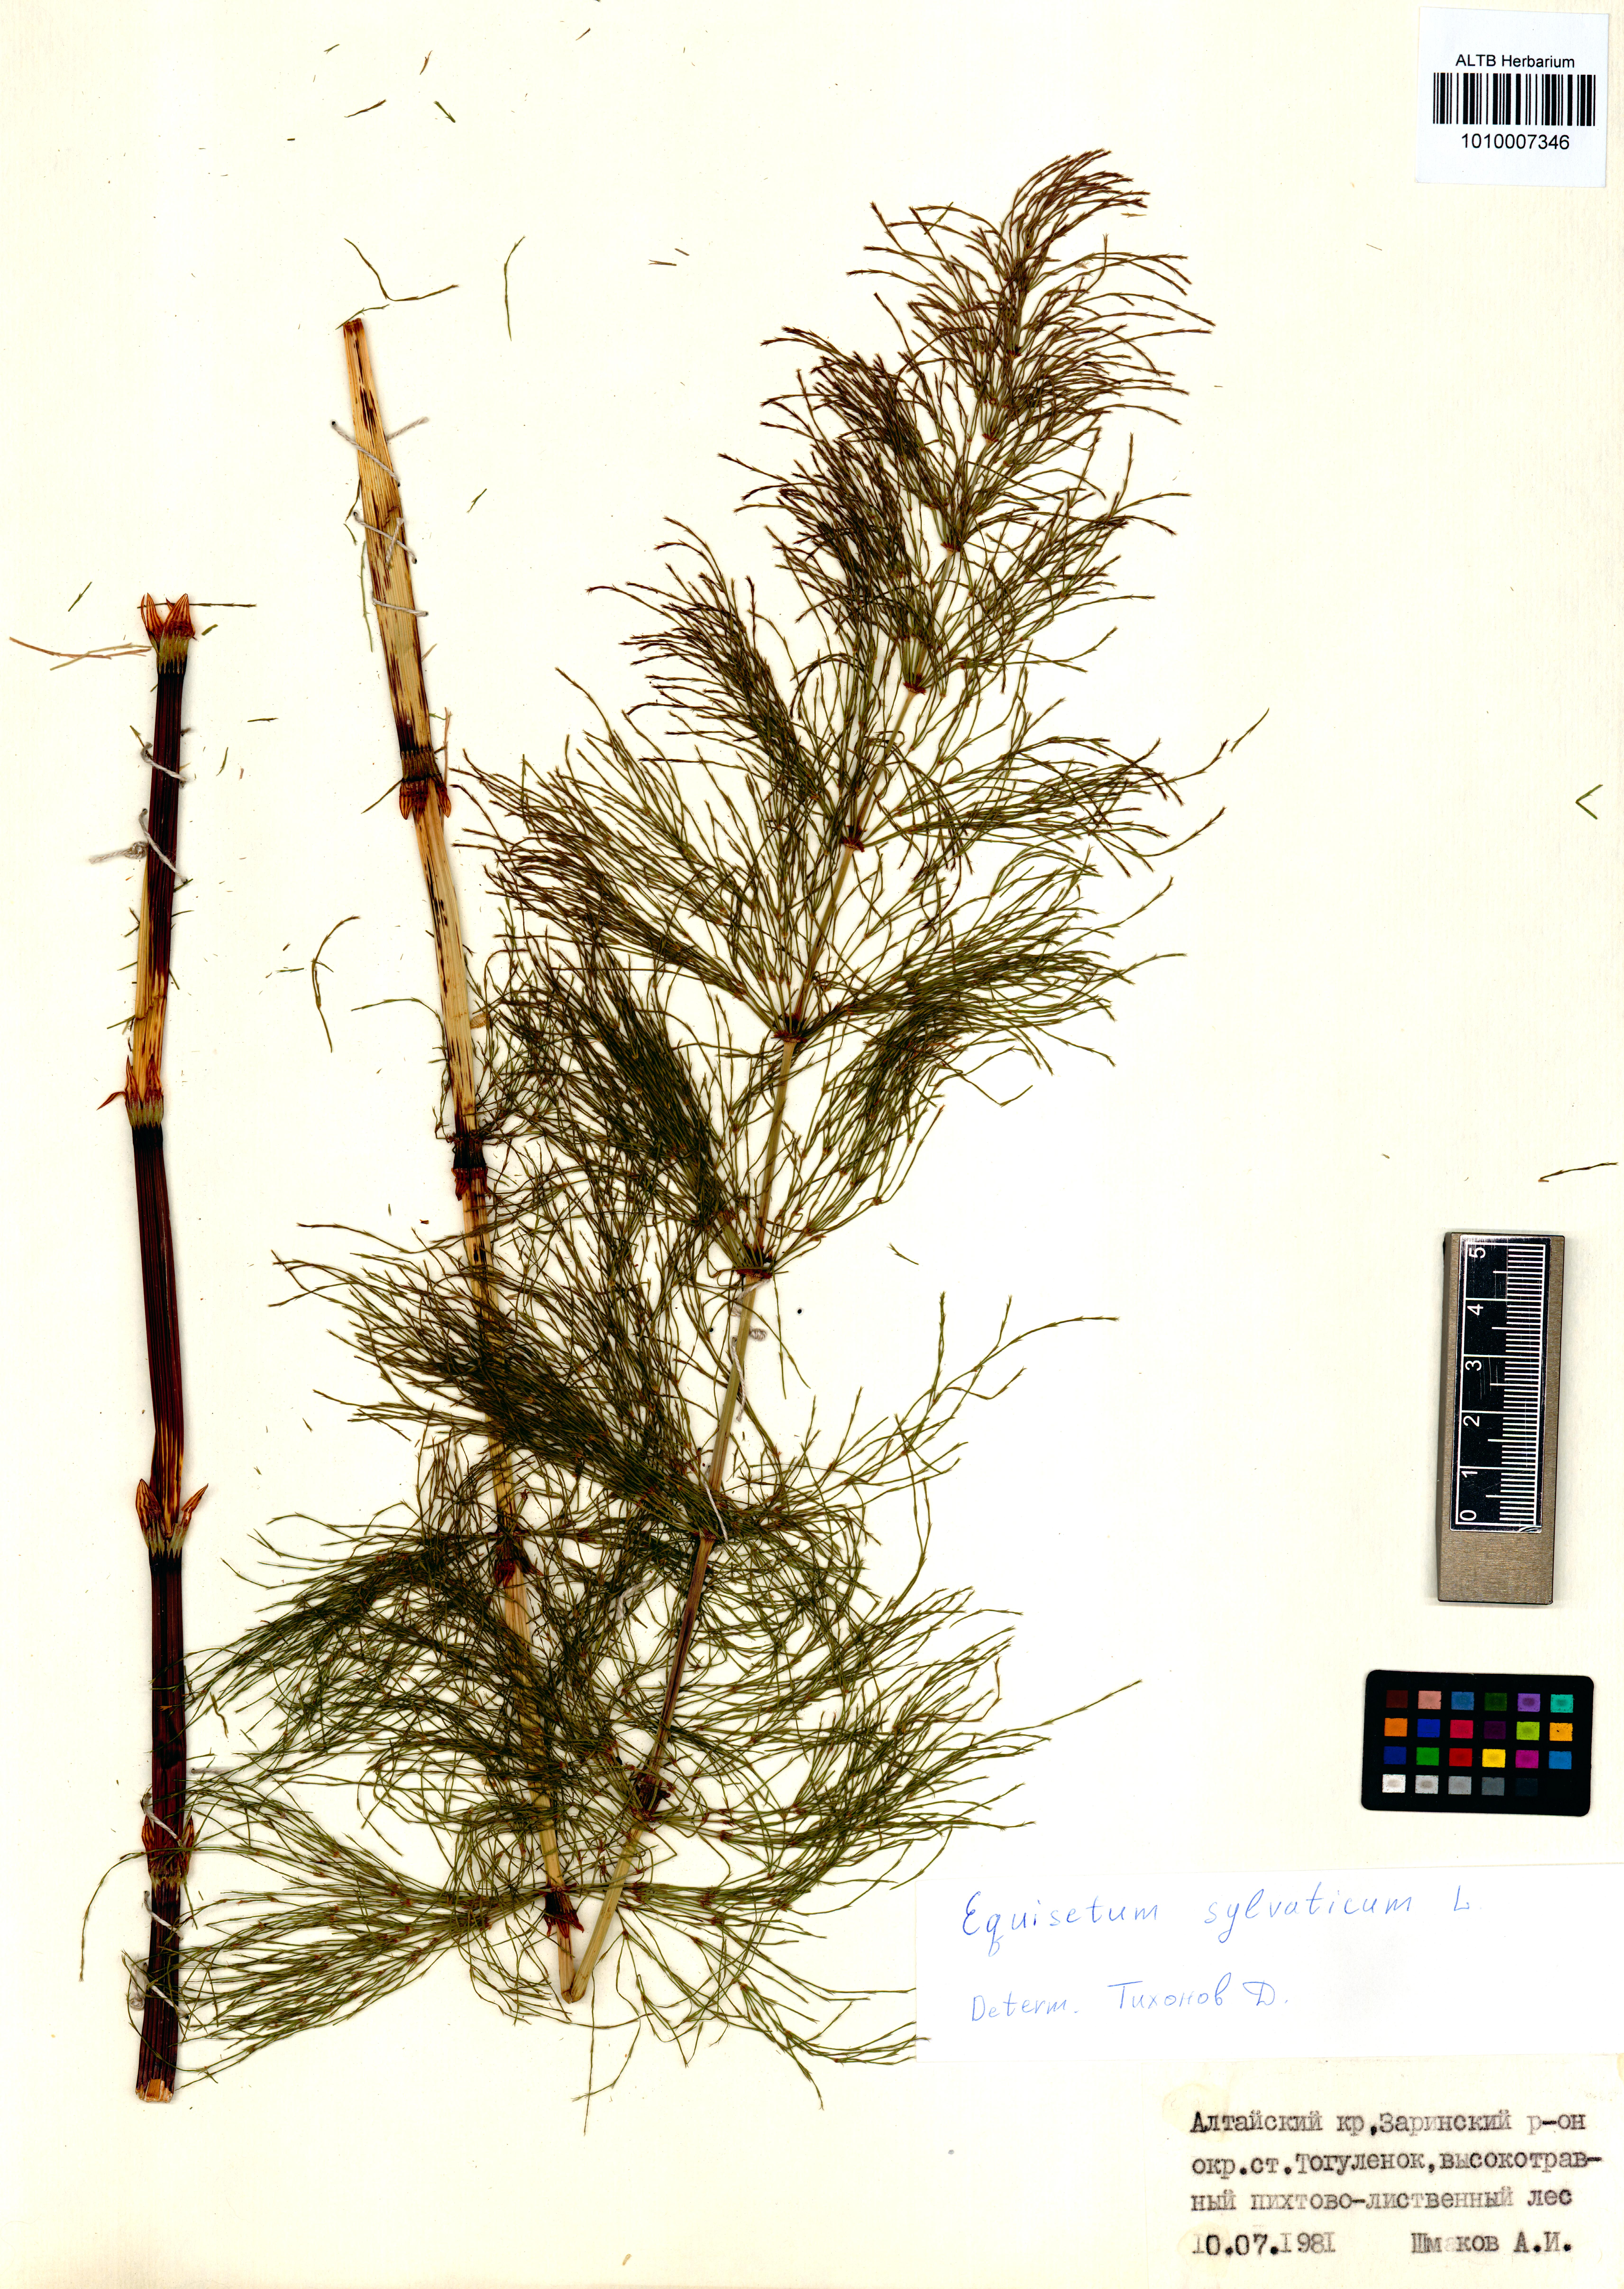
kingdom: Plantae
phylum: Tracheophyta
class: Polypodiopsida
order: Equisetales
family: Equisetaceae
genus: Equisetum
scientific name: Equisetum sylvaticum
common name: Wood horsetail
